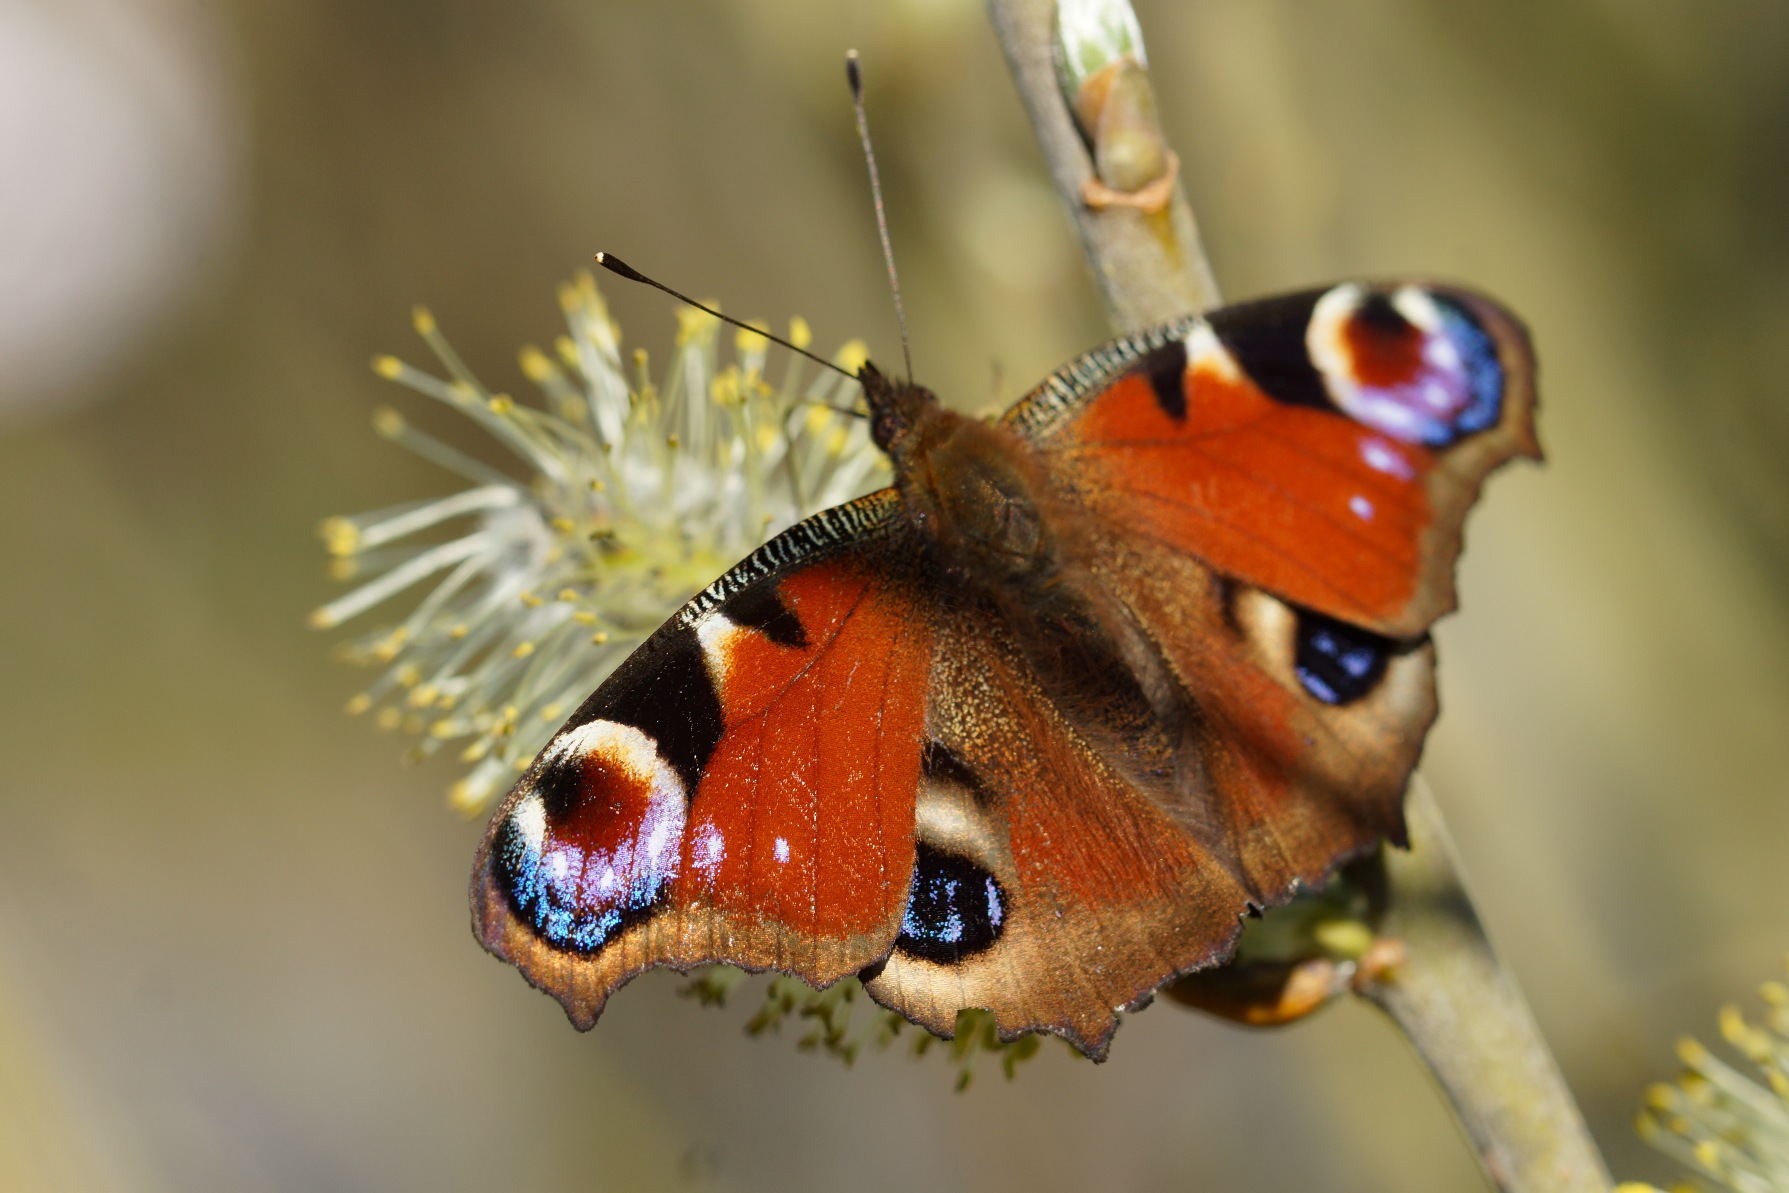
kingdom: Animalia
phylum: Arthropoda
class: Insecta
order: Lepidoptera
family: Nymphalidae
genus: Aglais
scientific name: Aglais io
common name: Dagpåfugleøje
